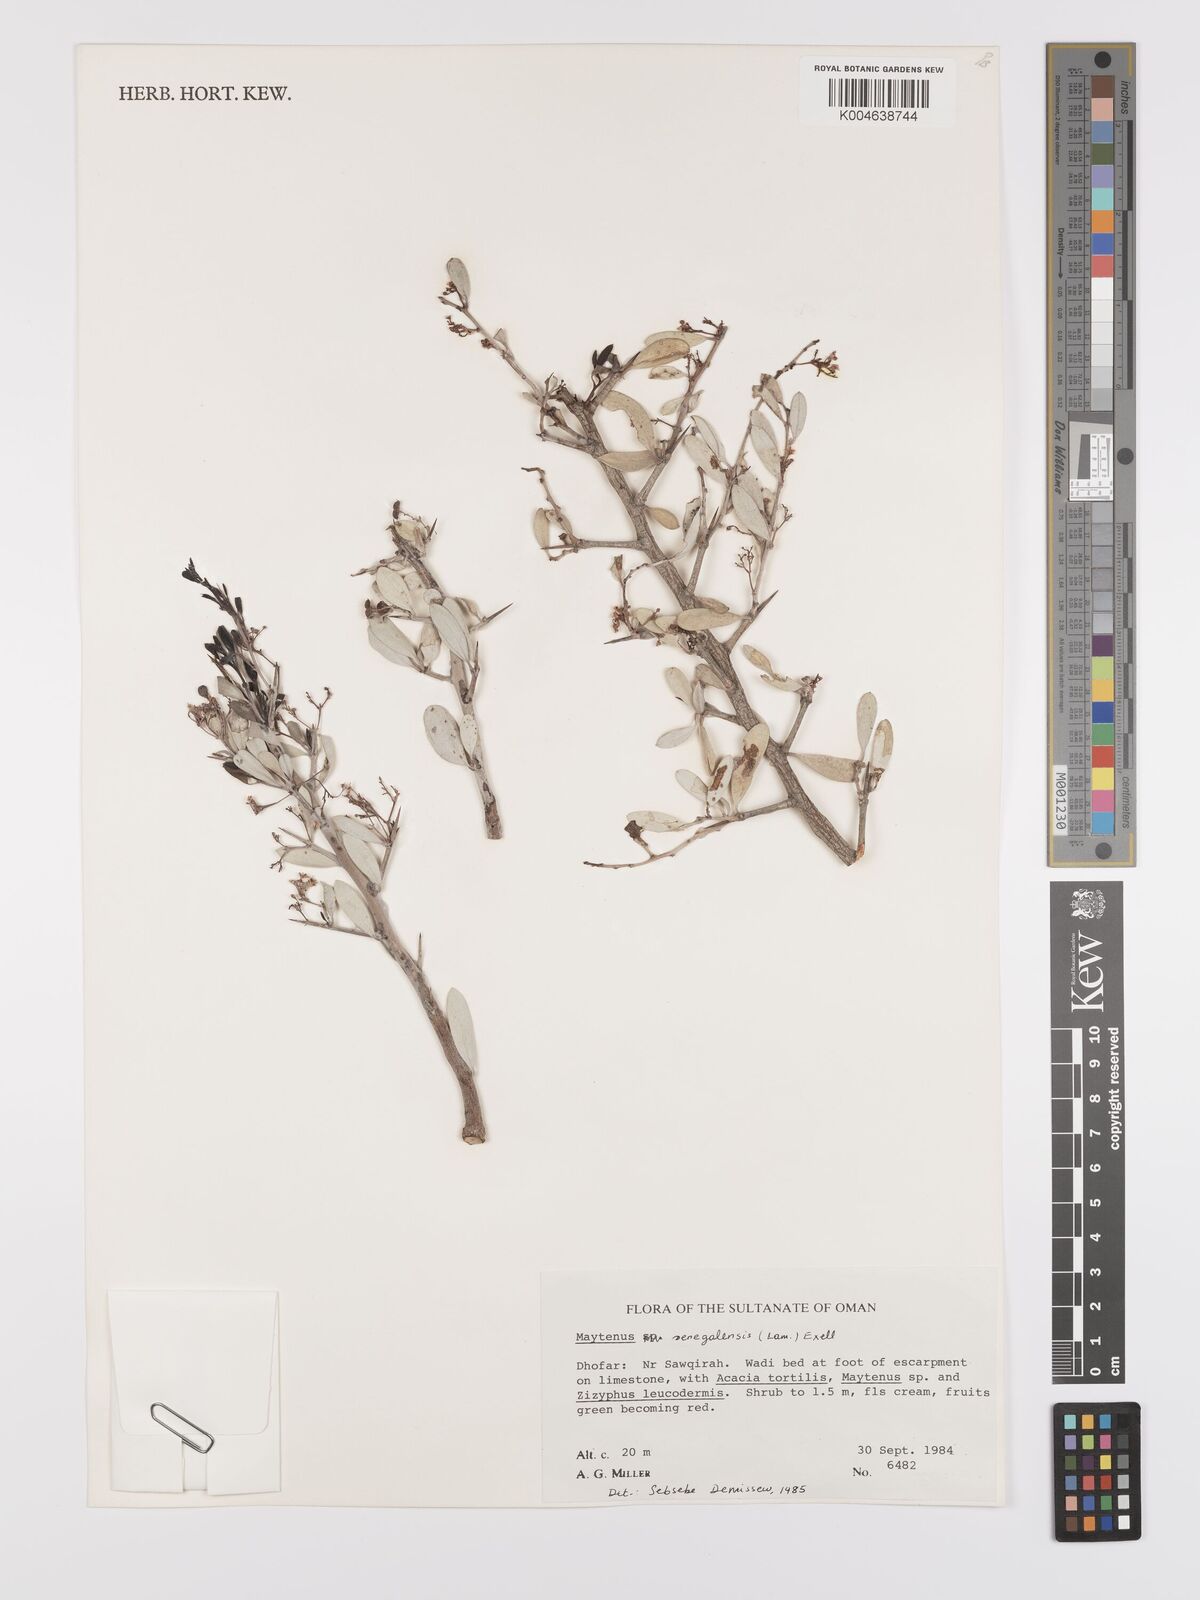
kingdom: Plantae
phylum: Tracheophyta
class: Magnoliopsida
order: Celastrales
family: Celastraceae
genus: Gymnosporia
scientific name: Gymnosporia senegalensis
